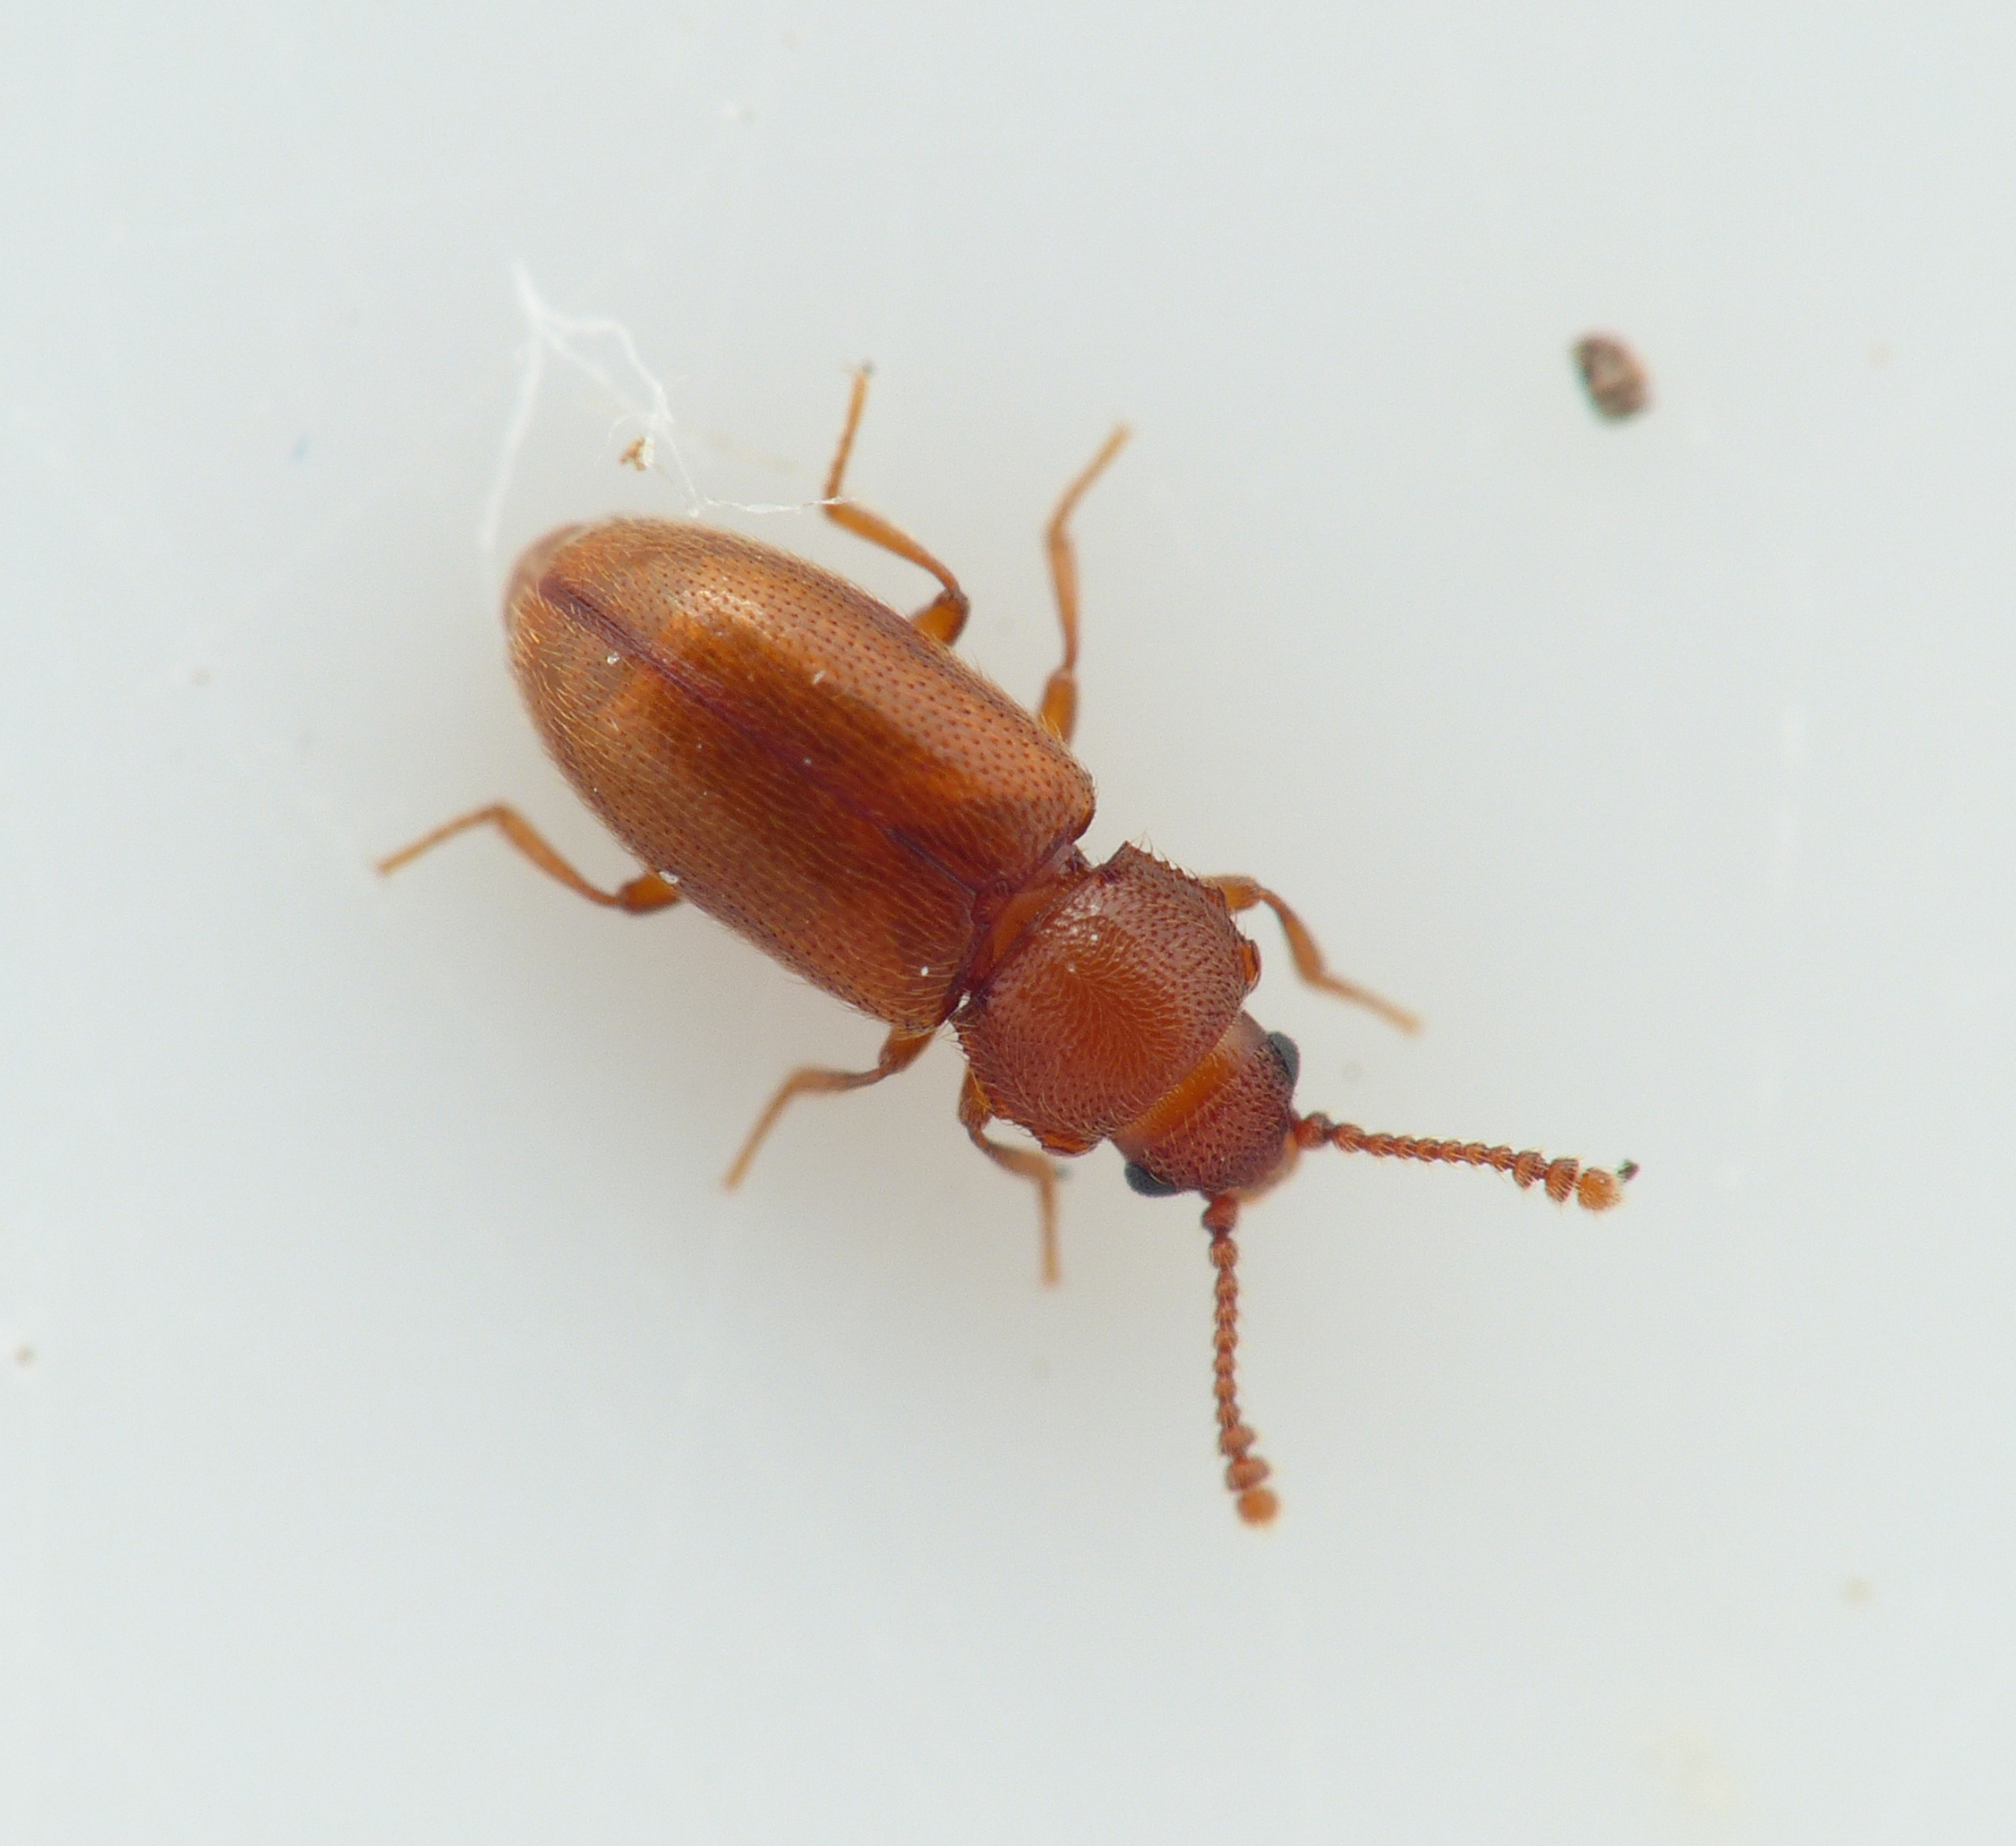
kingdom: Animalia
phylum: Arthropoda
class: Insecta
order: Coleoptera
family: Cryptophagidae
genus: Cryptophagus
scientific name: Cryptophagus scutellatus
